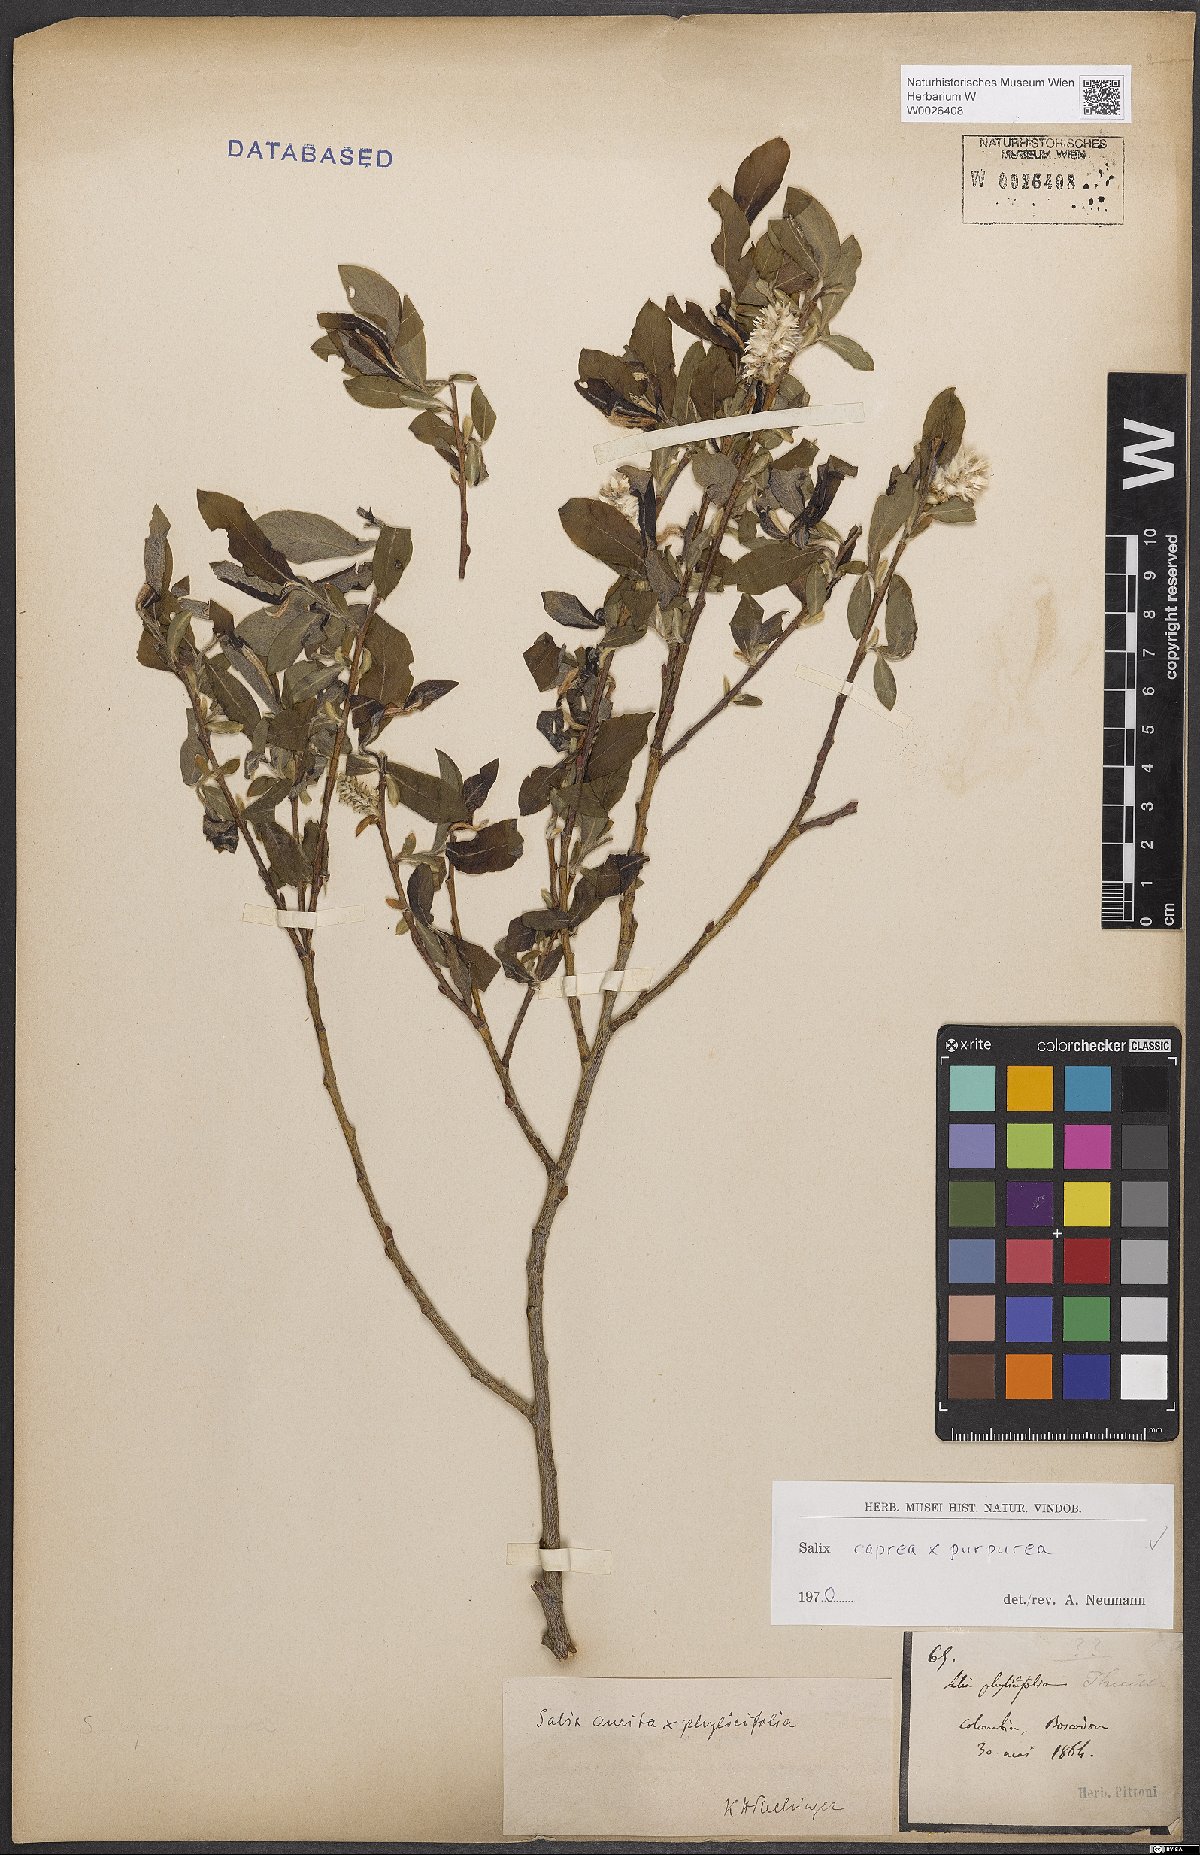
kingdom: Plantae
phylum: Tracheophyta
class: Magnoliopsida
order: Malpighiales
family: Salicaceae
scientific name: Salicaceae
